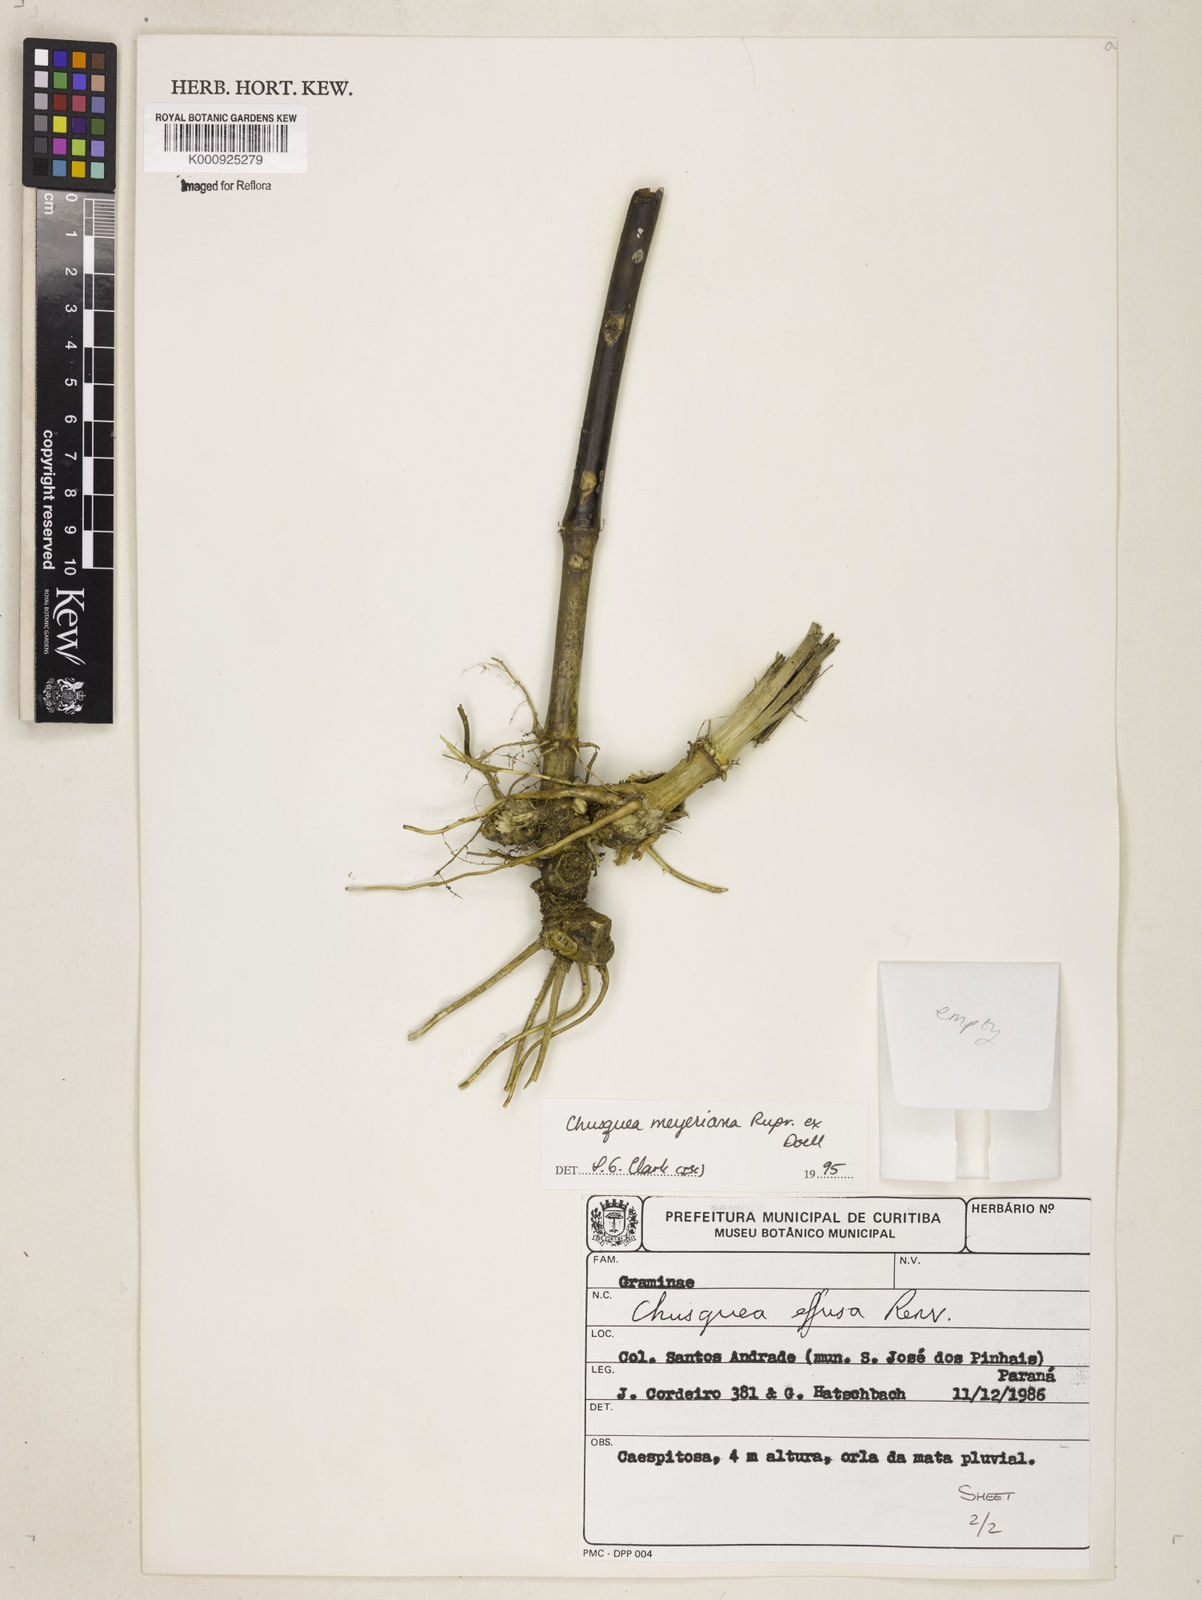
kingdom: Plantae
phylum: Tracheophyta
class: Liliopsida
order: Poales
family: Poaceae
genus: Chusquea
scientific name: Chusquea
